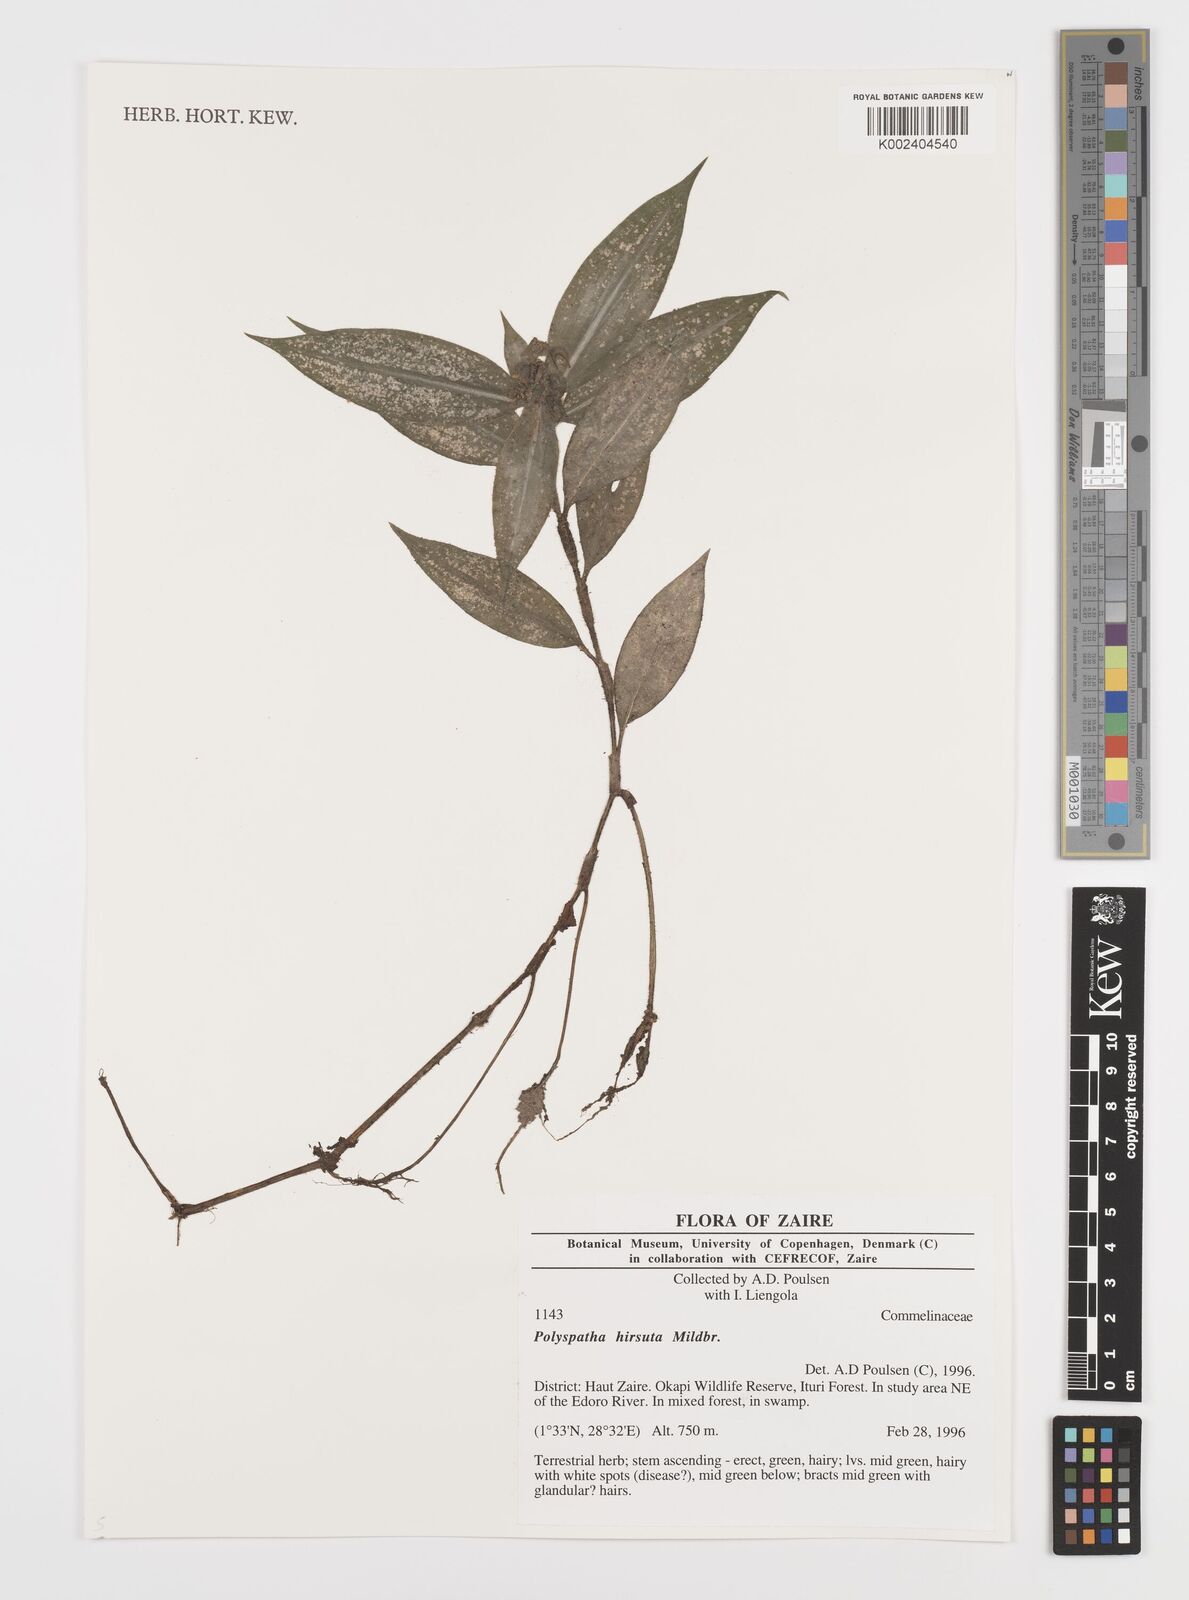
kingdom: Plantae
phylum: Tracheophyta
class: Liliopsida
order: Commelinales
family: Commelinaceae
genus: Polyspatha
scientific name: Polyspatha hirsuta
